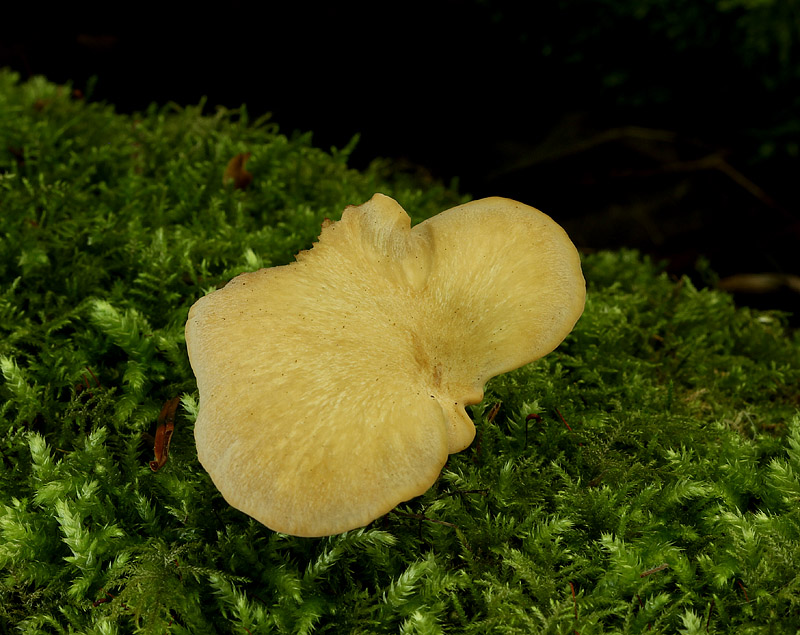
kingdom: Fungi
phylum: Basidiomycota
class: Agaricomycetes
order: Polyporales
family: Polyporaceae
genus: Cerioporus
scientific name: Cerioporus varius
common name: foranderlig stilkporesvamp
